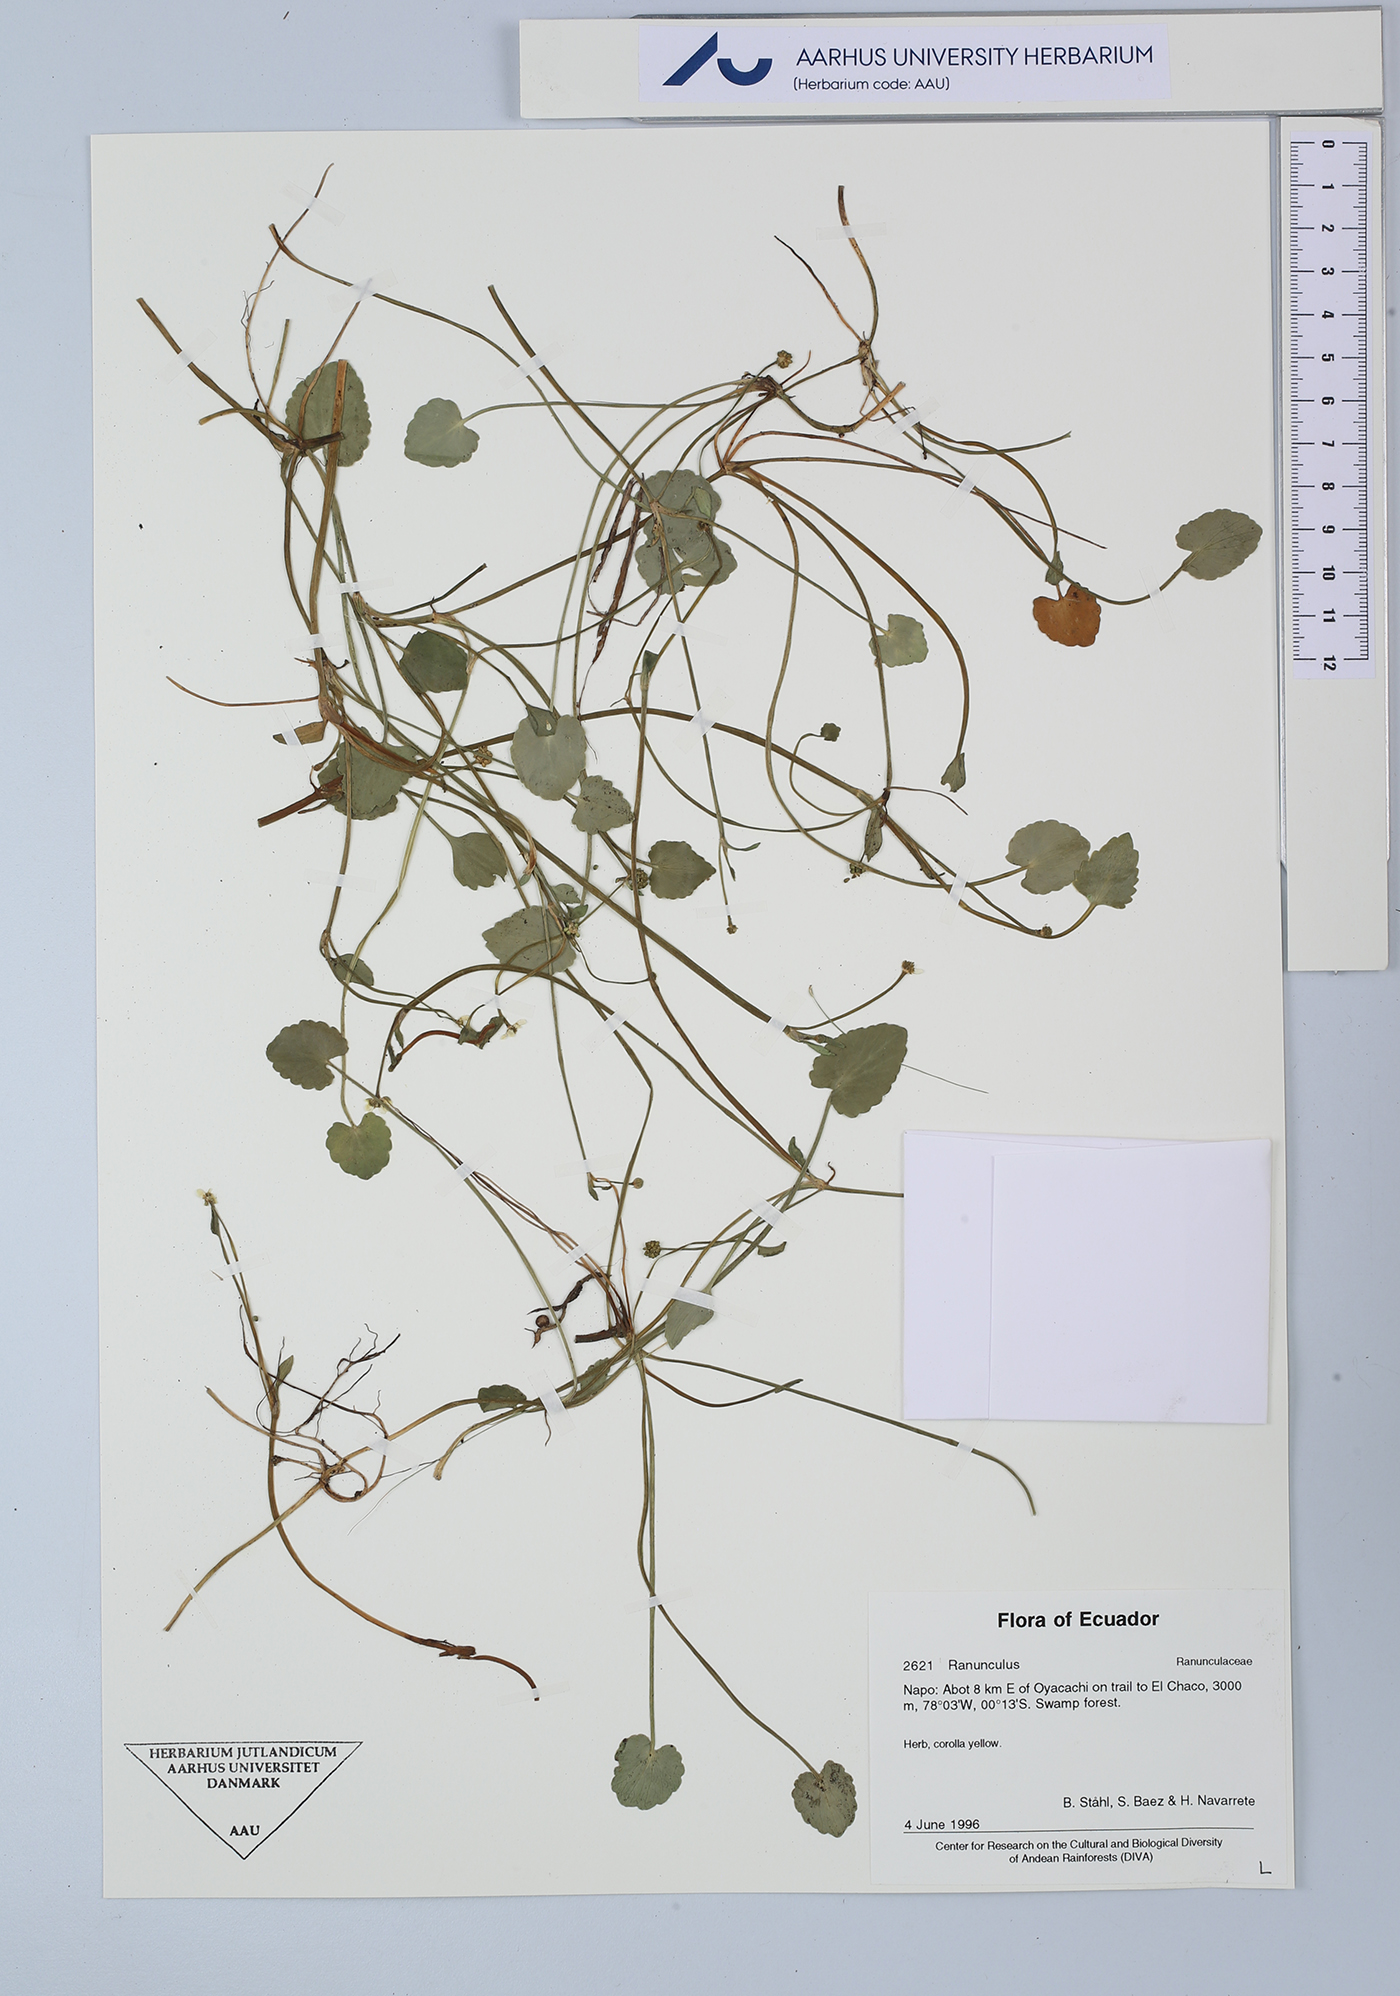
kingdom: Plantae
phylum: Tracheophyta
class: Magnoliopsida
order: Ranunculales
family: Ranunculaceae
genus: Ranunculus
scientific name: Ranunculus
